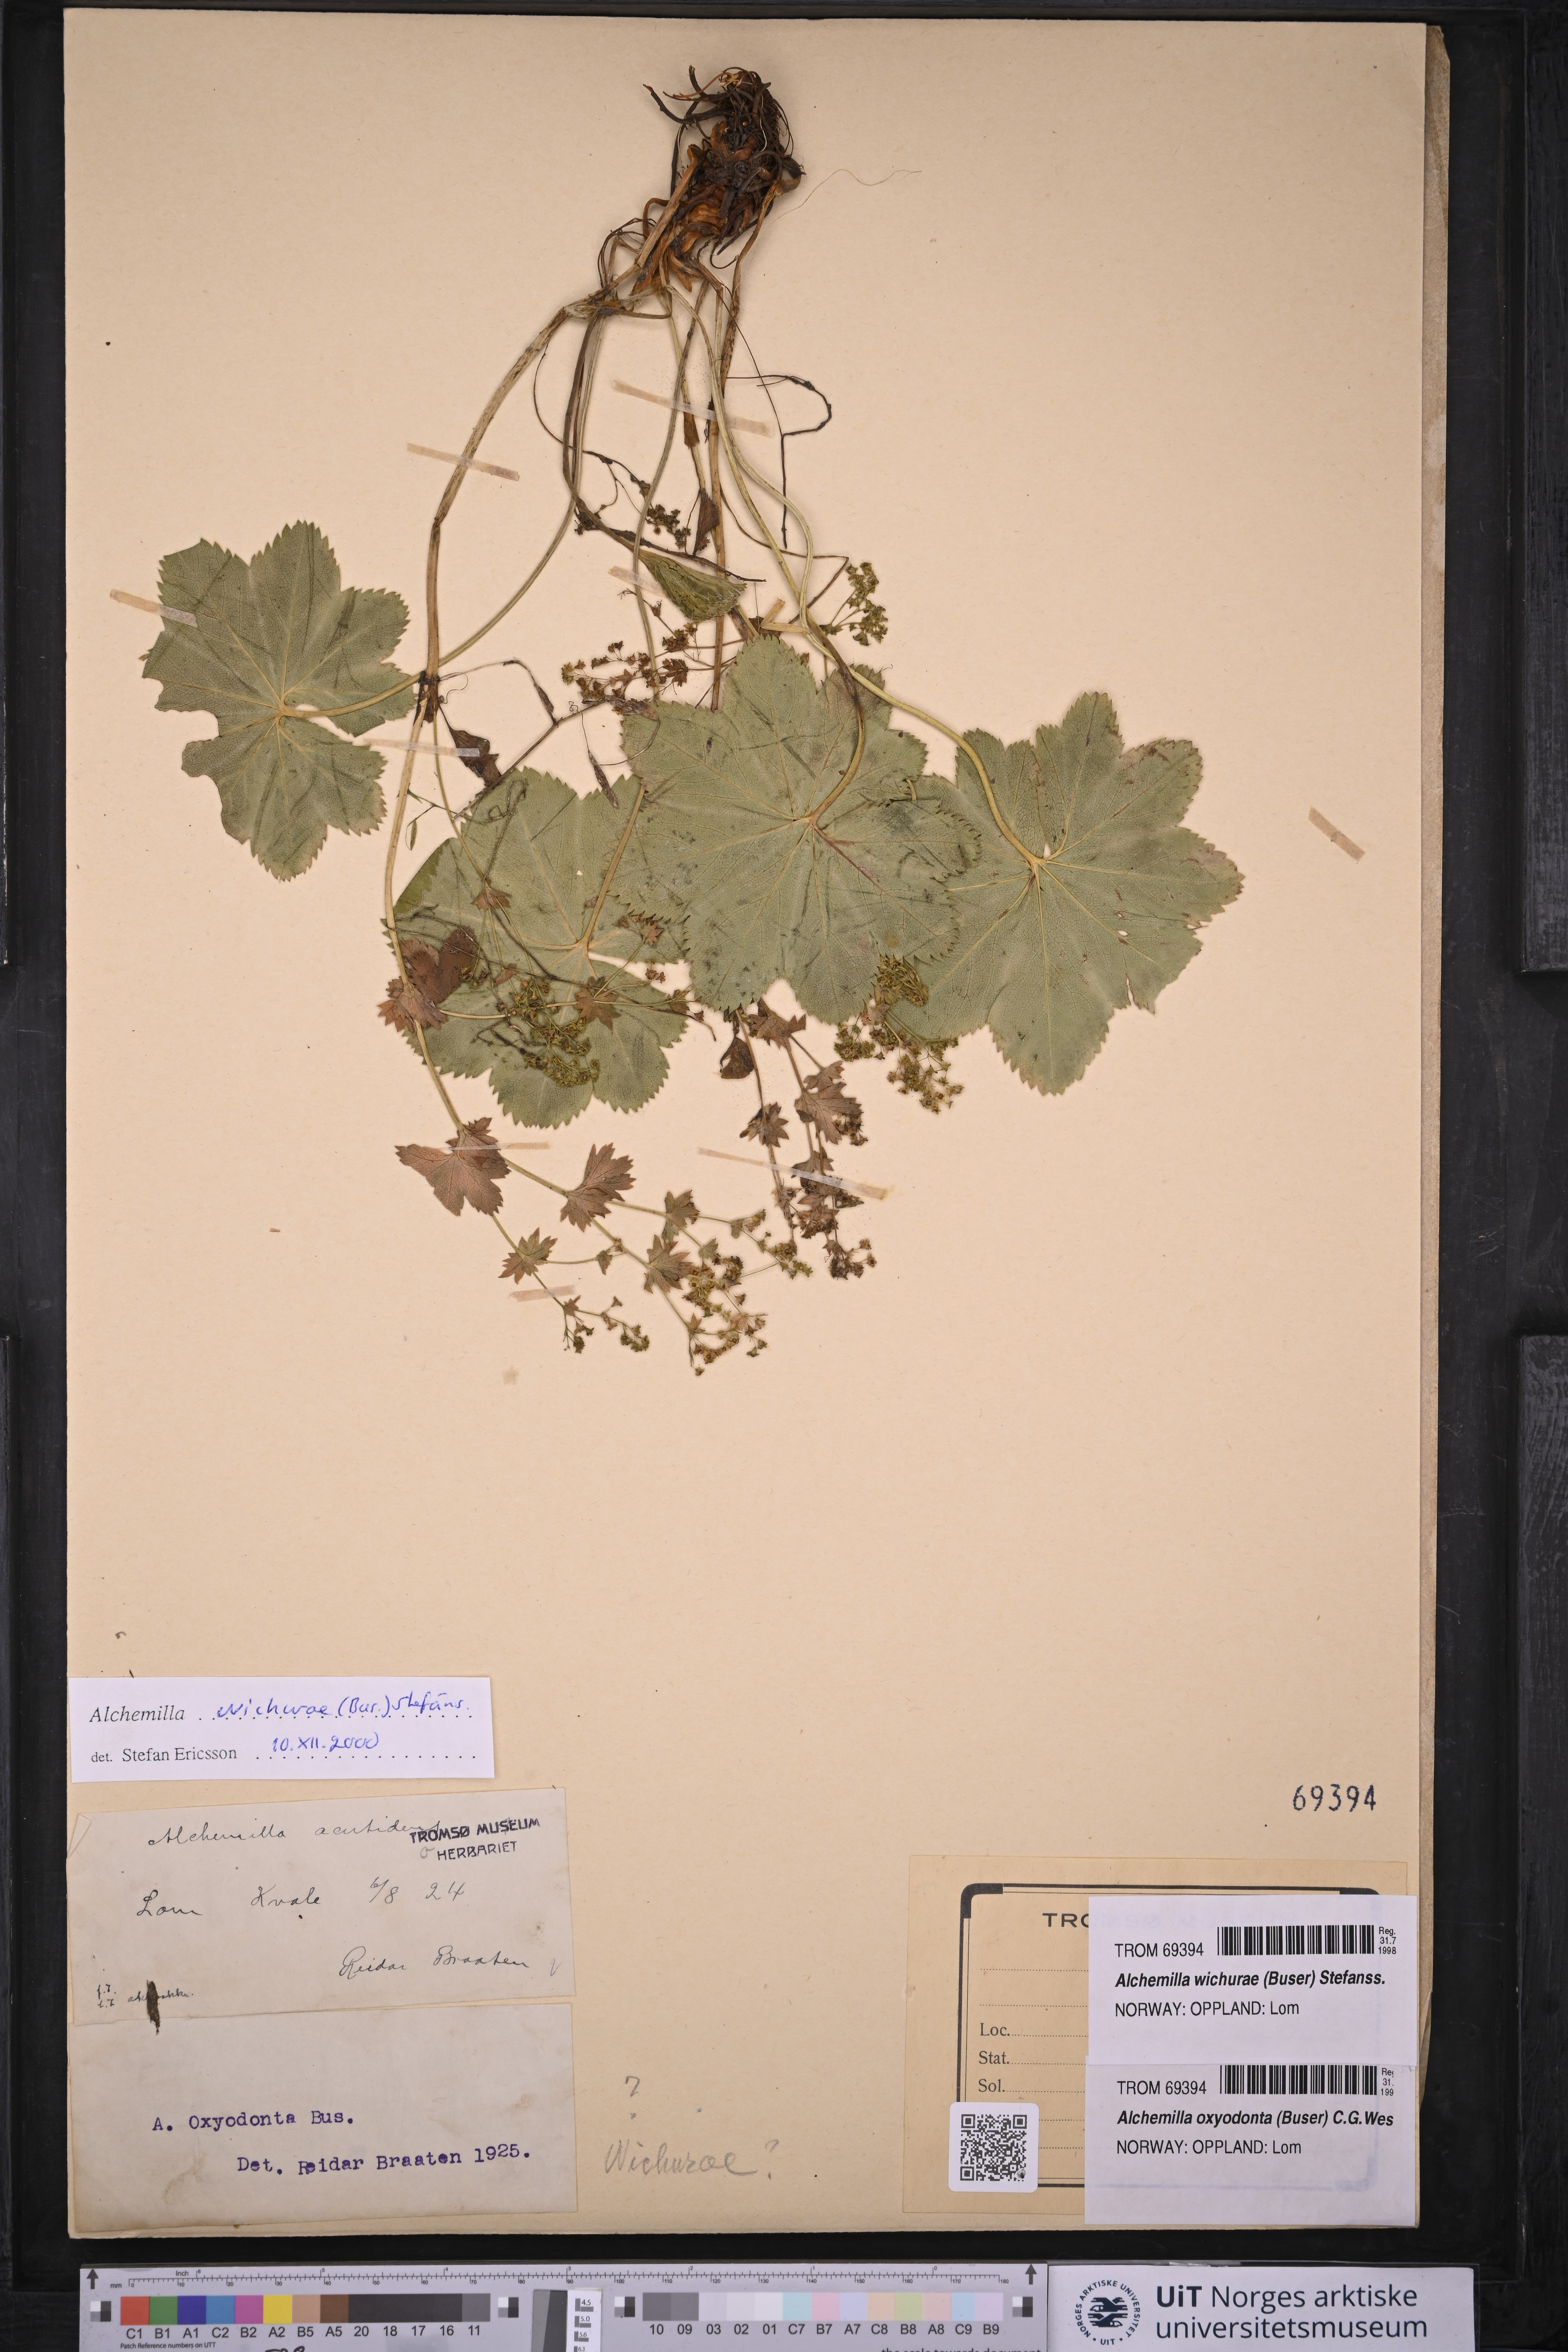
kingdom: Plantae
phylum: Tracheophyta
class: Magnoliopsida
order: Rosales
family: Rosaceae
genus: Alchemilla
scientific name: Alchemilla wichurae
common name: Rock lady's mantle
